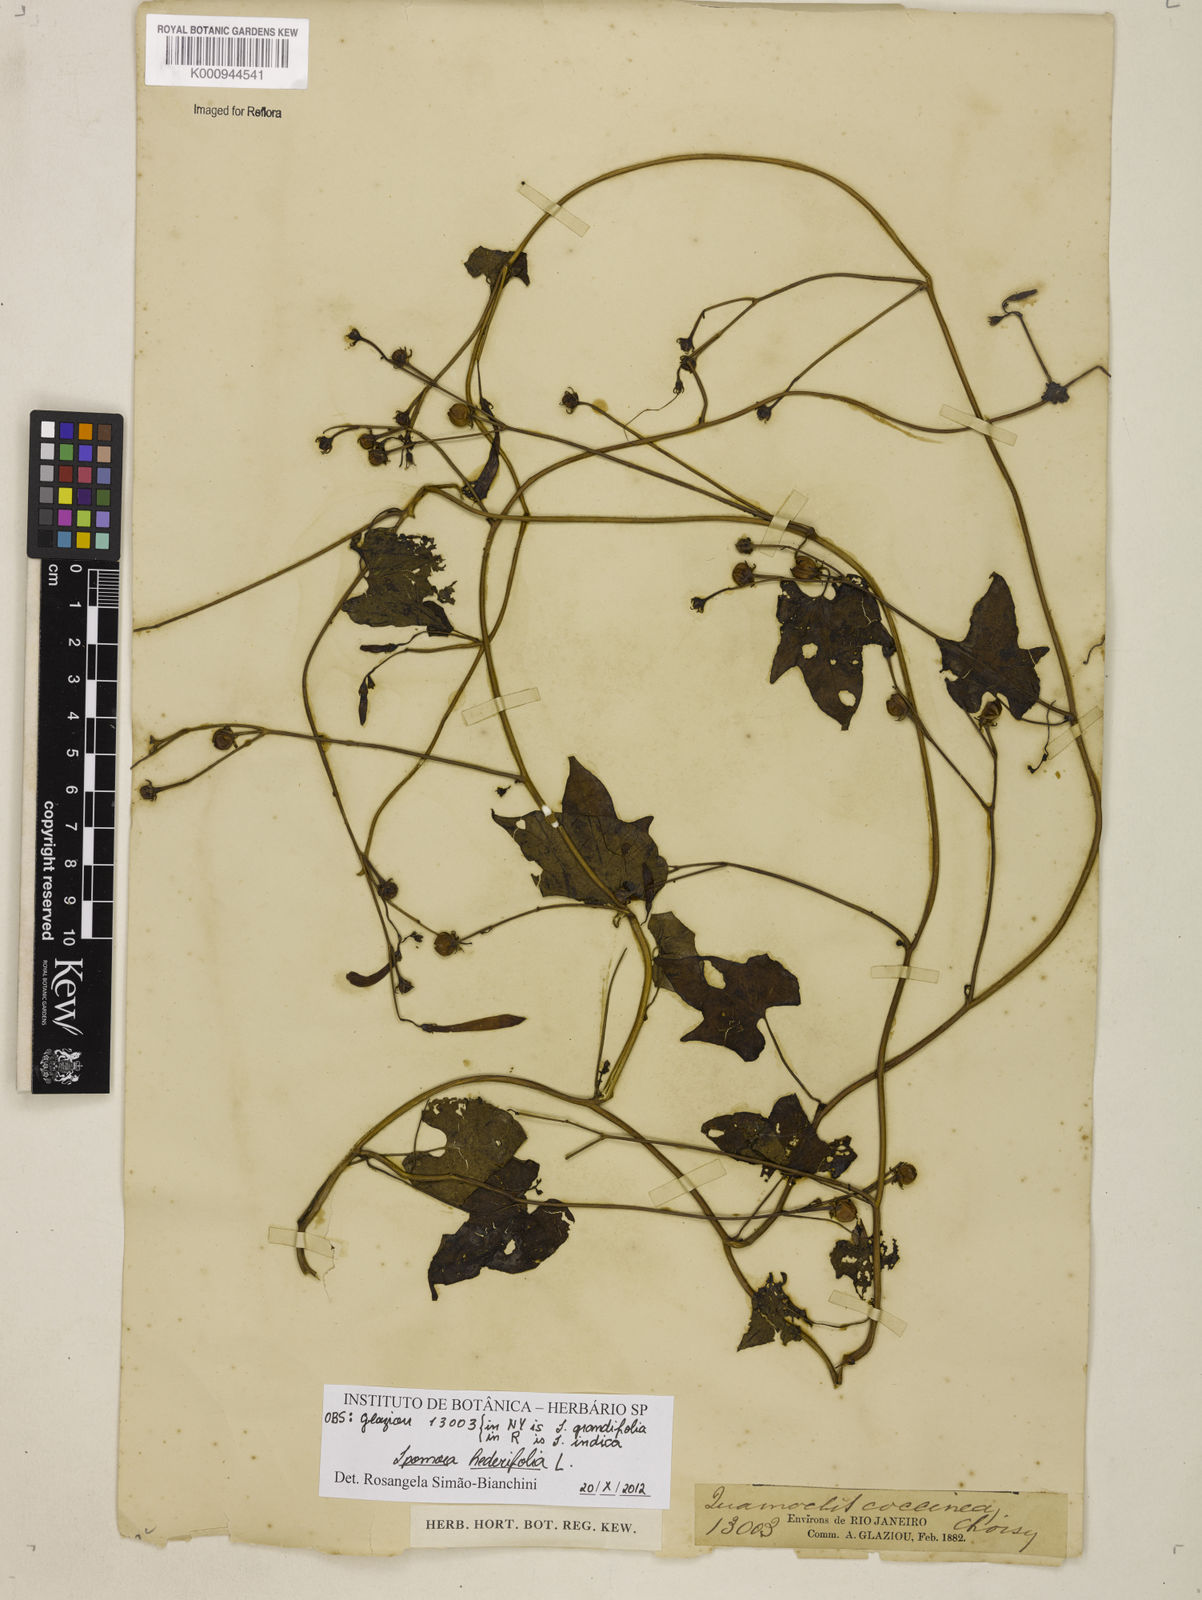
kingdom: Plantae
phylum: Tracheophyta
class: Magnoliopsida
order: Solanales
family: Convolvulaceae
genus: Ipomoea
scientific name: Ipomoea hederifolia
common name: Ivy-leaf morning-glory
